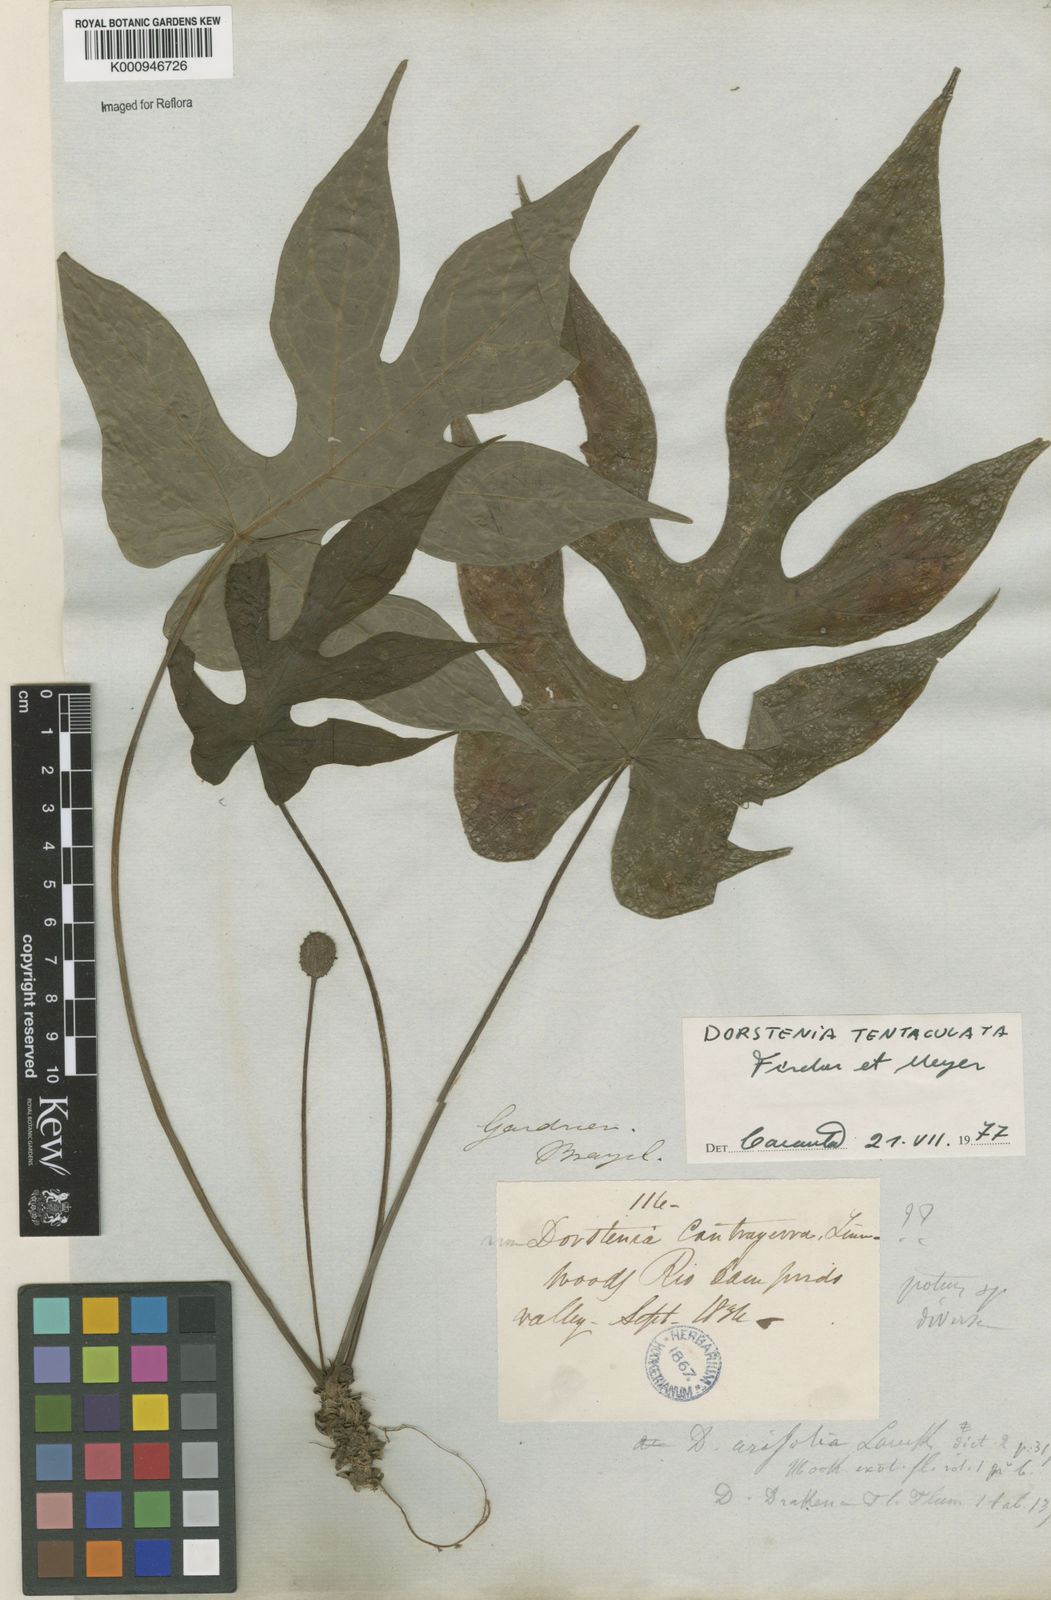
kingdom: Plantae
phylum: Tracheophyta
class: Magnoliopsida
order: Rosales
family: Moraceae
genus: Dorstenia
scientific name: Dorstenia tentaculata
